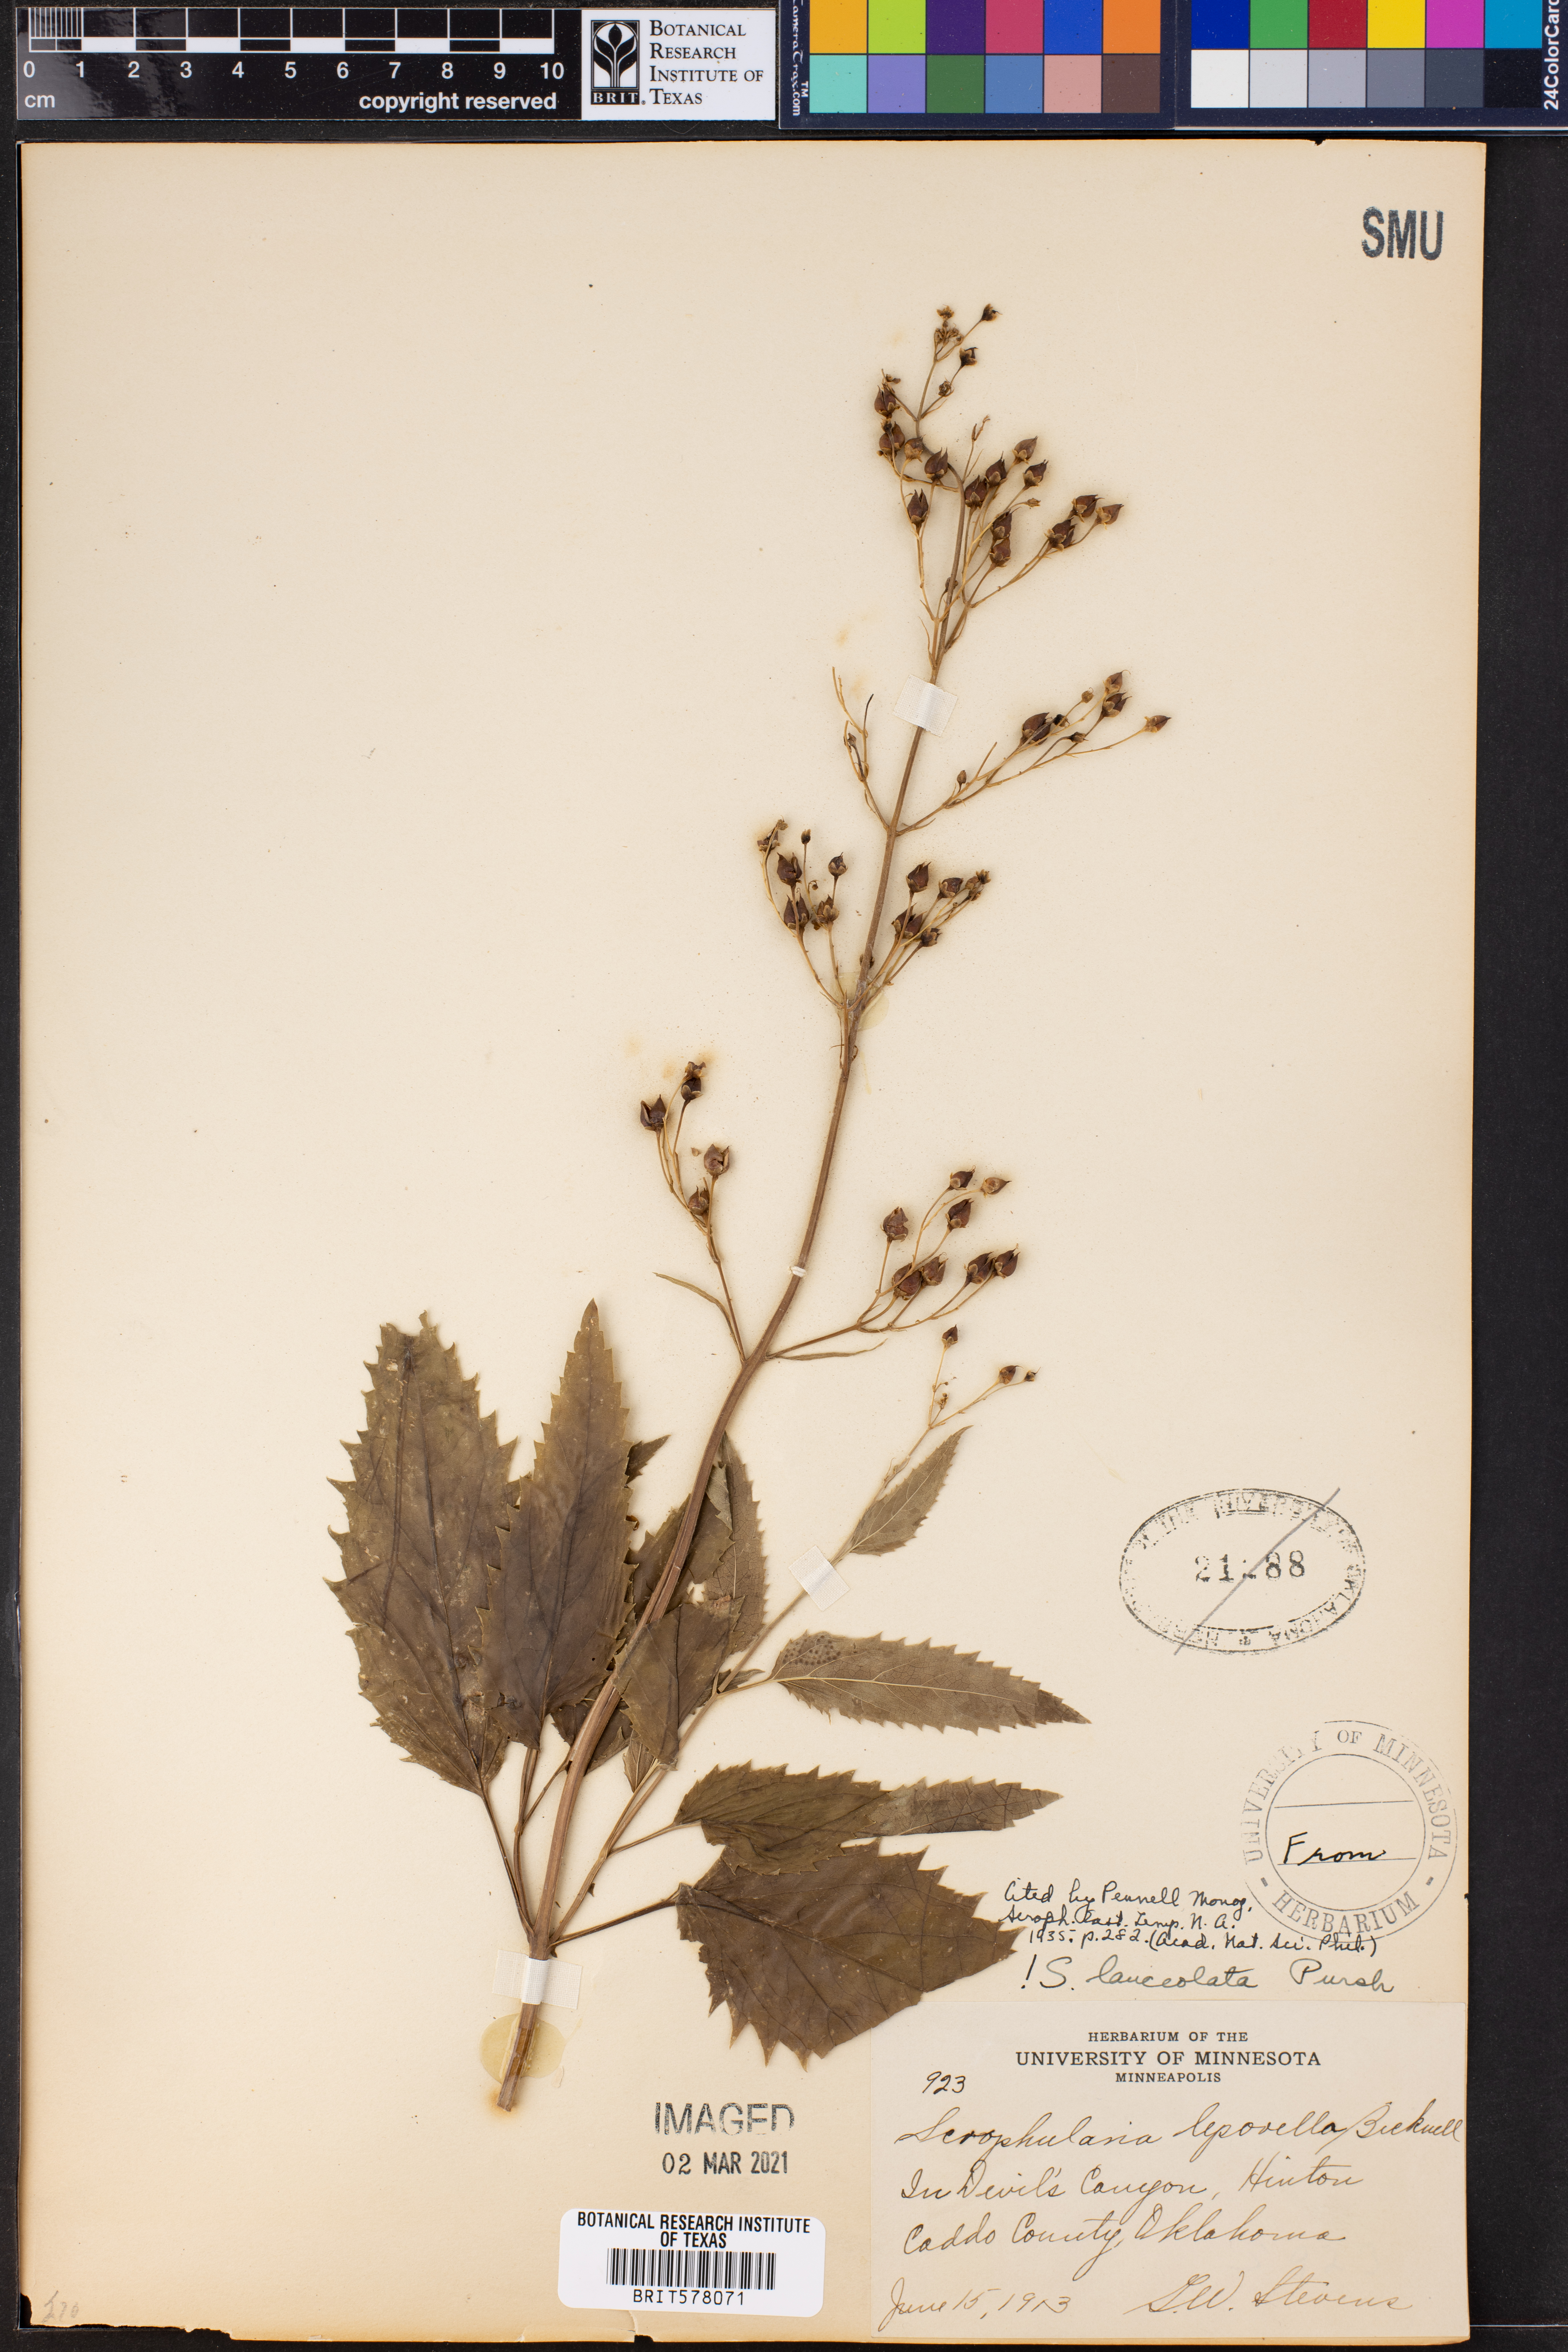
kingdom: Plantae
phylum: Tracheophyta
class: Magnoliopsida
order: Lamiales
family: Scrophulariaceae
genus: Scrophularia
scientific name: Scrophularia lanceolata
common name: American figwort
